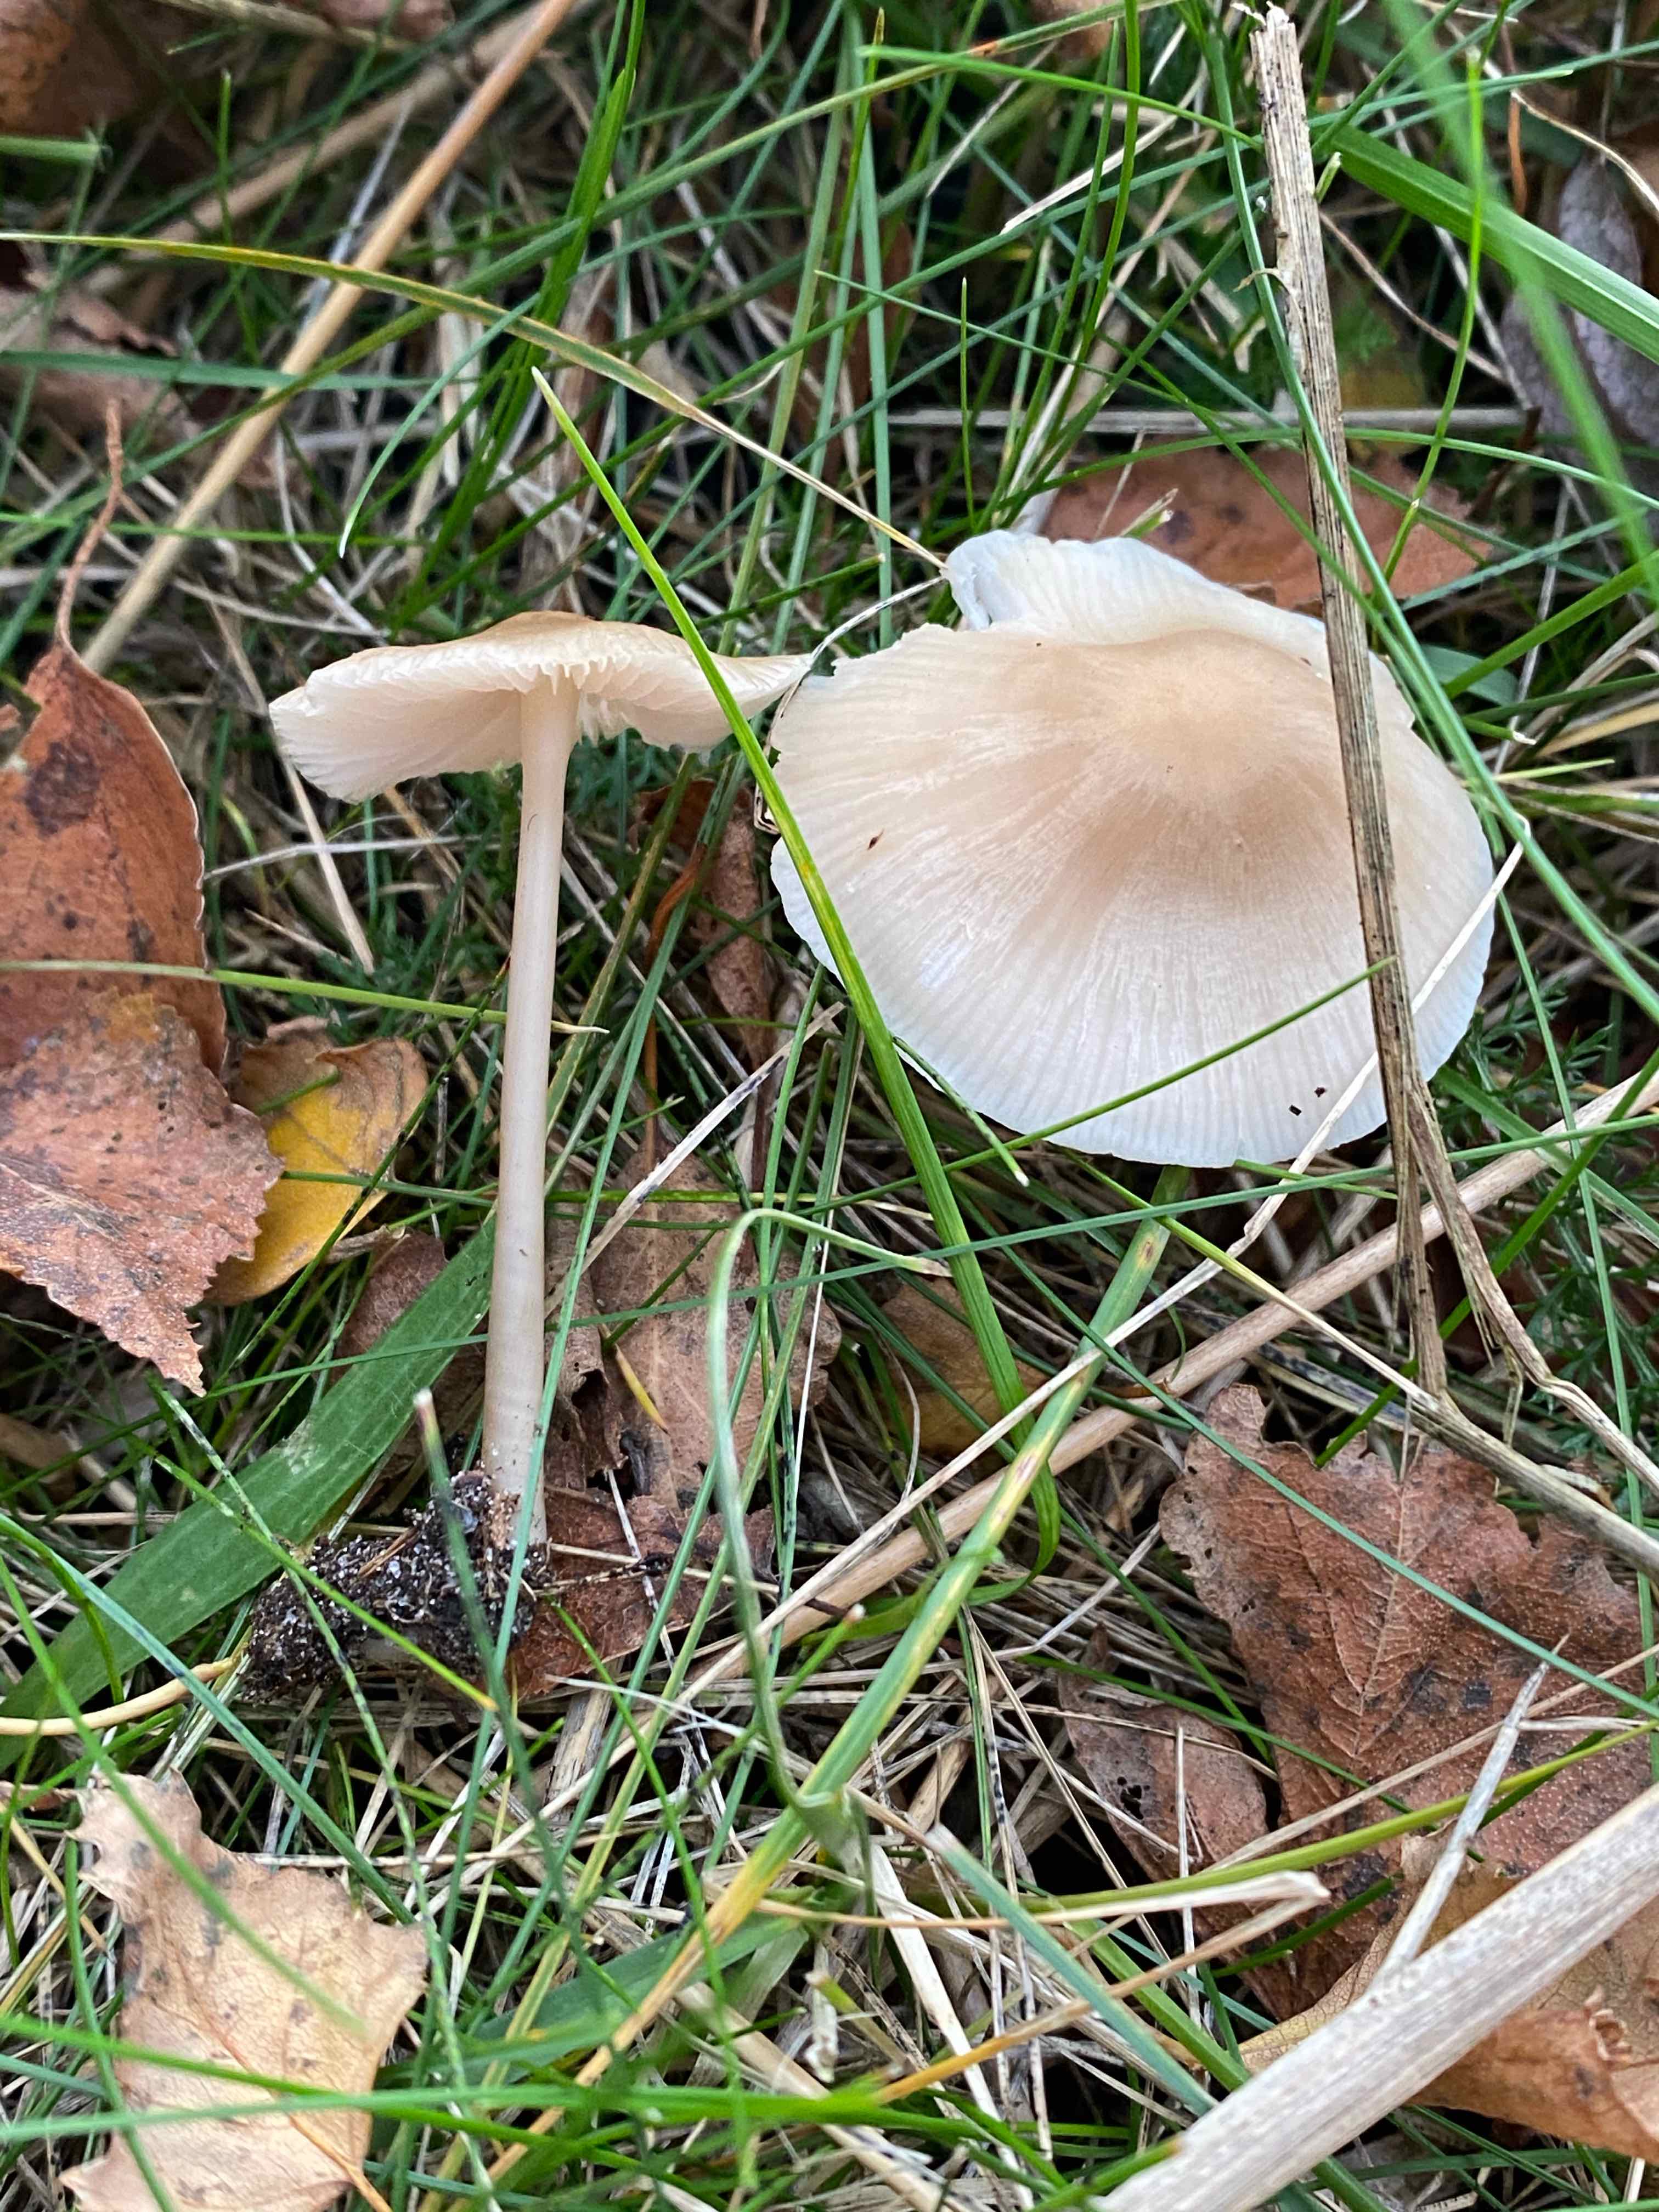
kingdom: Fungi
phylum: Basidiomycota
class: Agaricomycetes
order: Agaricales
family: Mycenaceae
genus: Mycena
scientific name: Mycena galericulata
